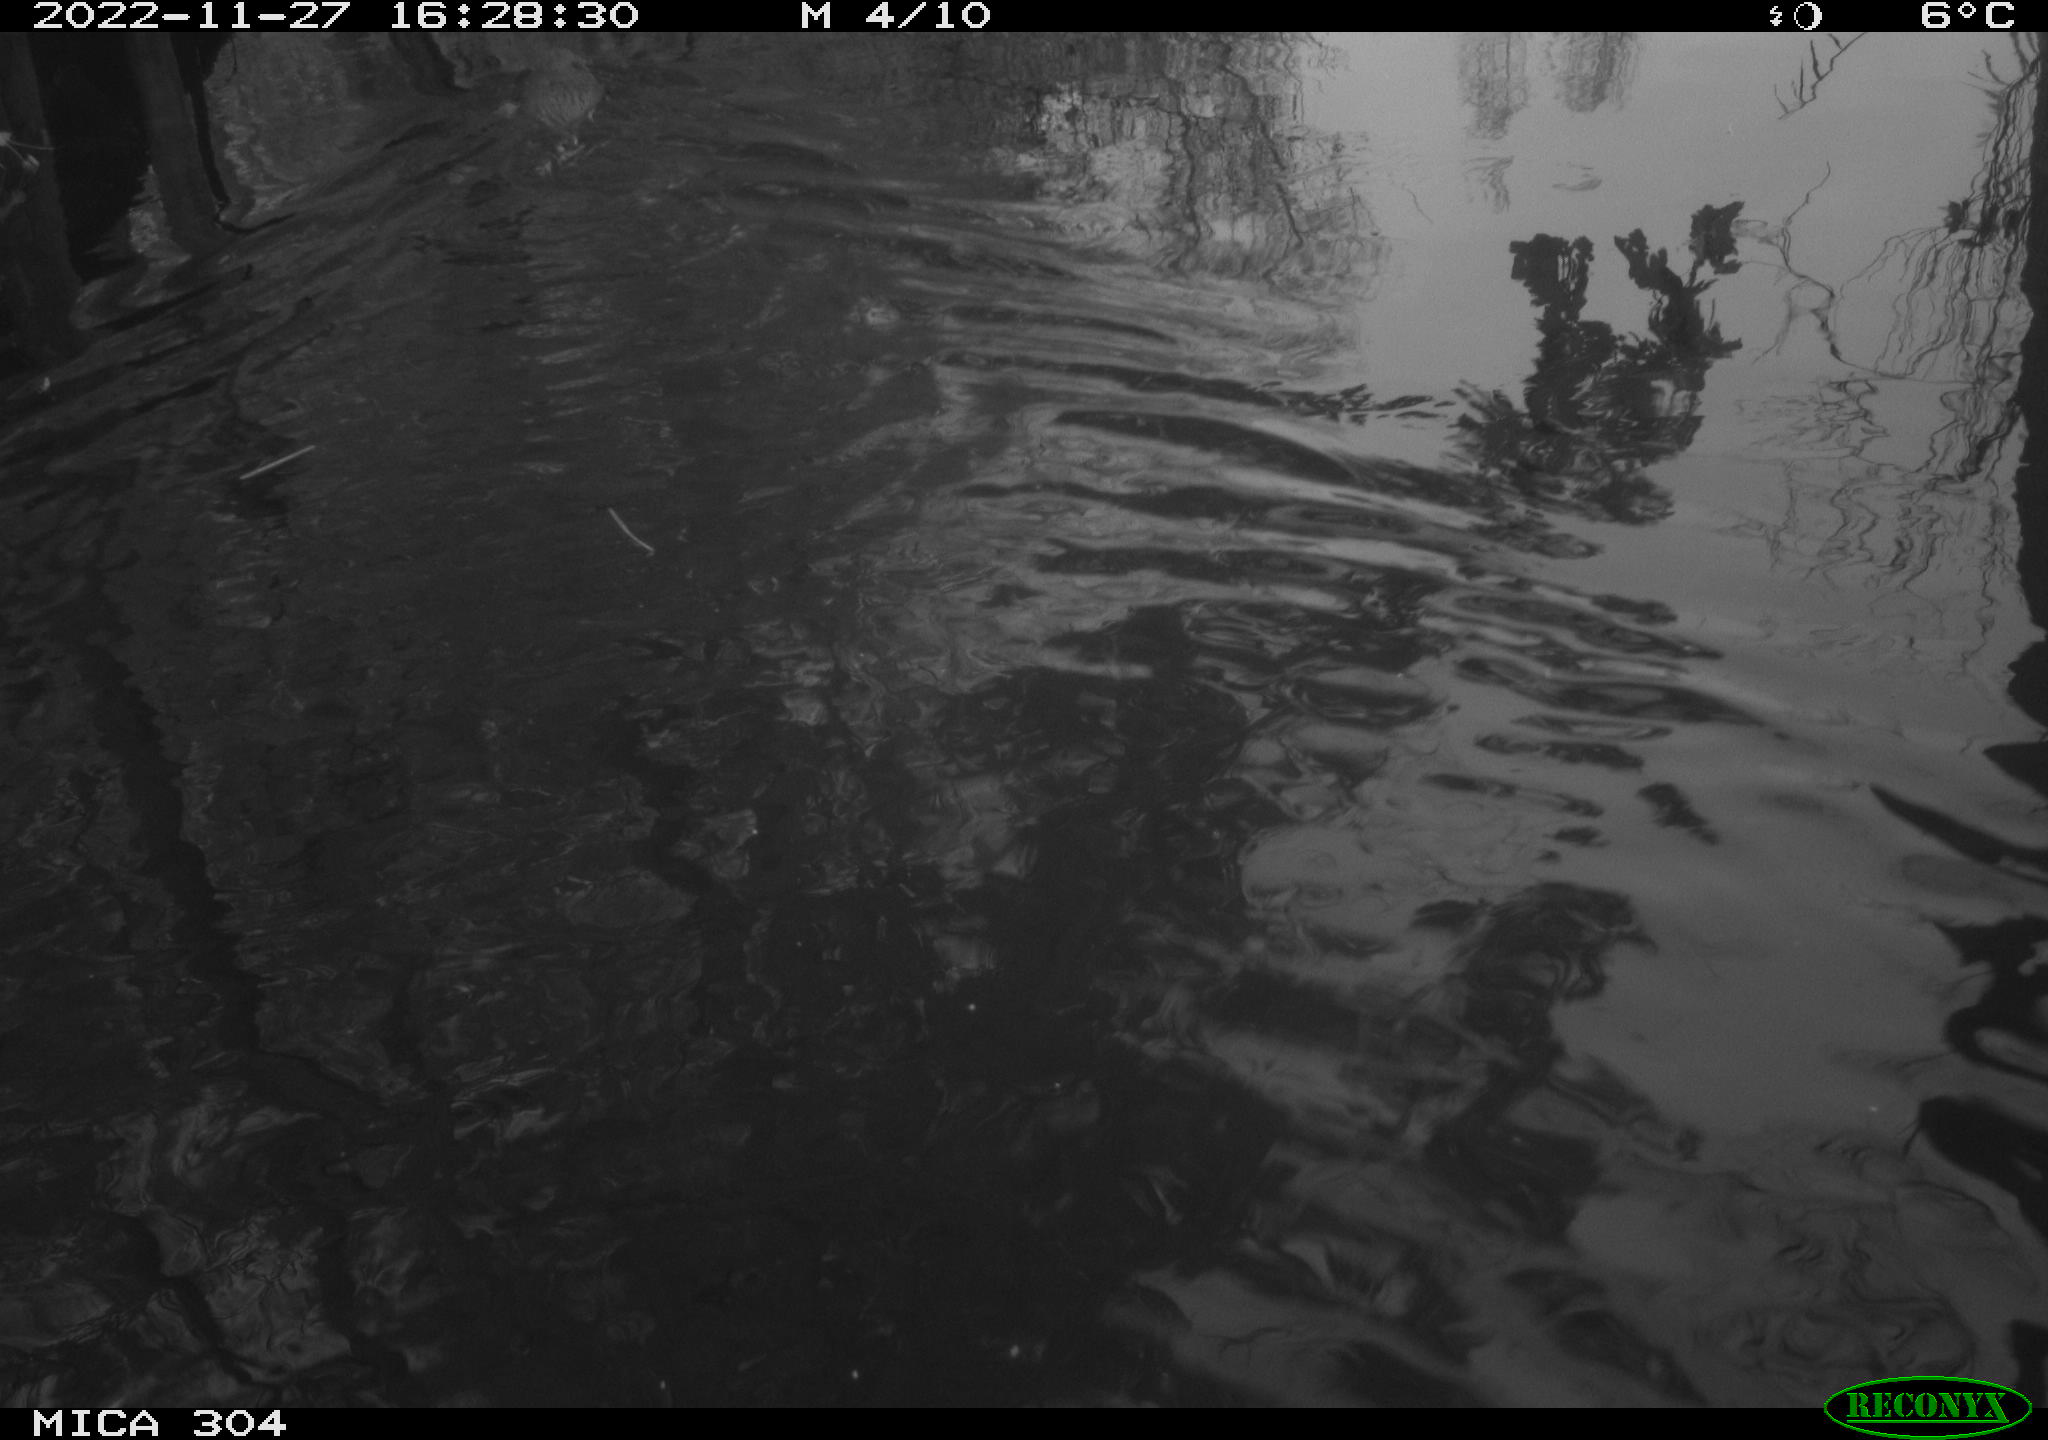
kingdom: Animalia
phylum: Chordata
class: Mammalia
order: Rodentia
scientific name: Rodentia
